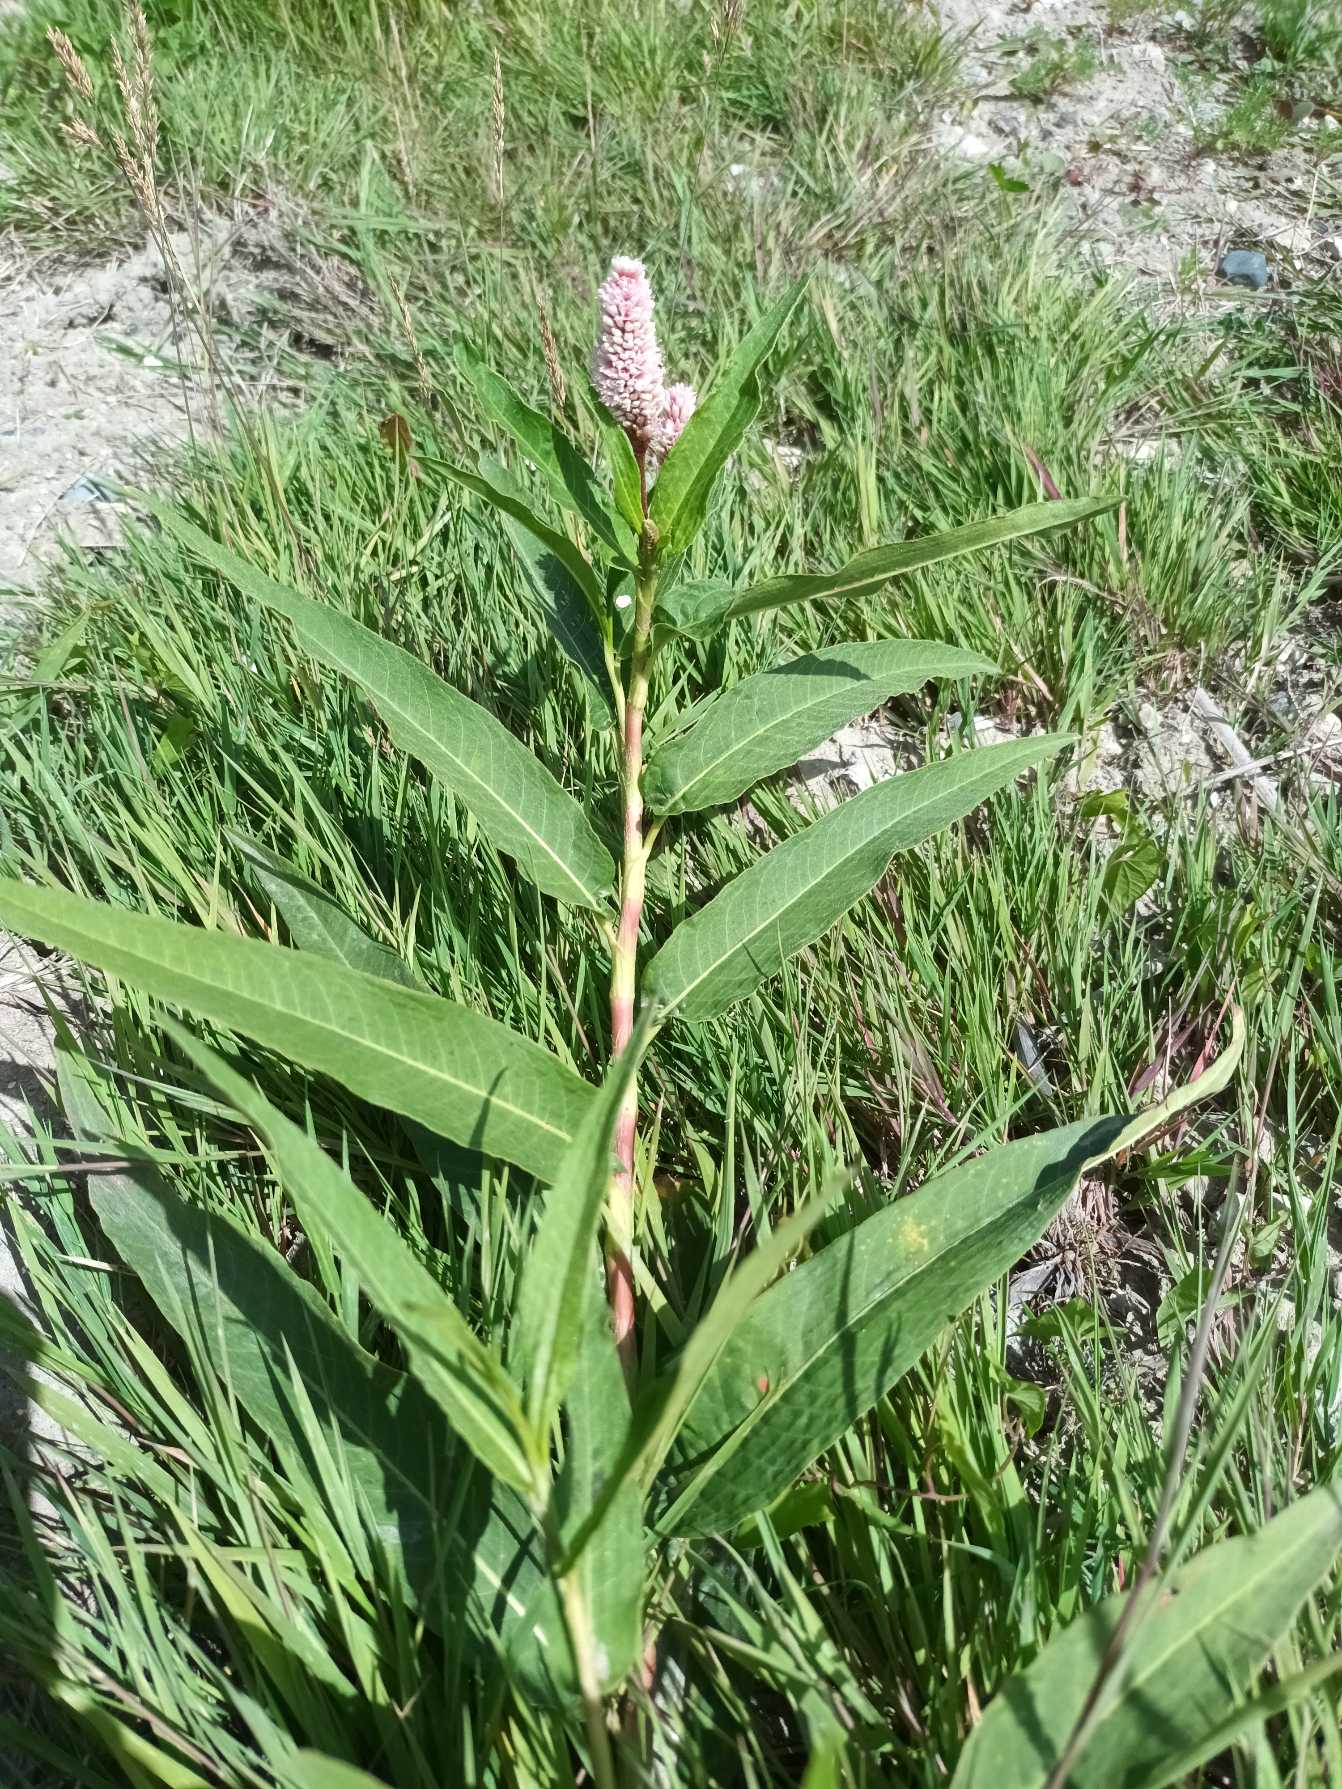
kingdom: Plantae
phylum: Tracheophyta
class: Magnoliopsida
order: Caryophyllales
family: Polygonaceae
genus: Persicaria
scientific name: Persicaria amphibia
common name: Vand-pileurt
